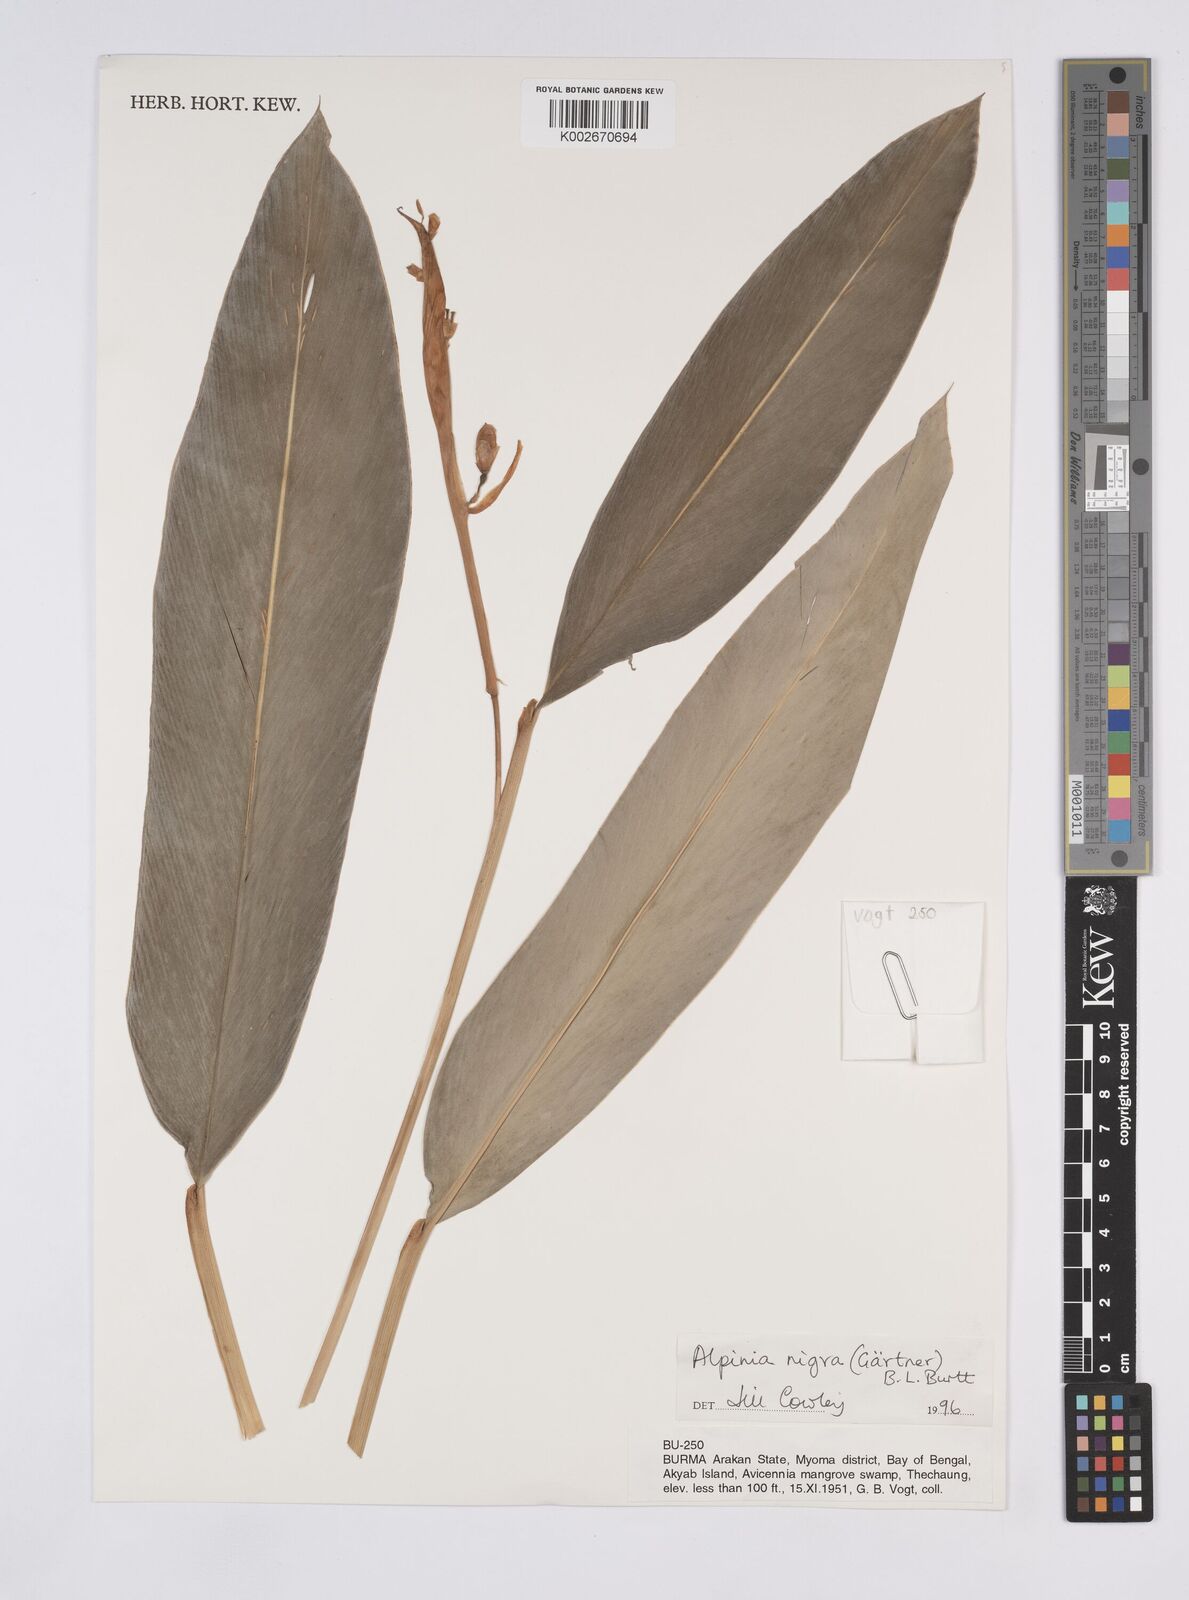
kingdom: Plantae
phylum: Tracheophyta
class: Liliopsida
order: Zingiberales
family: Zingiberaceae
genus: Alpinia
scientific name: Alpinia nigra
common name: Black fruited galanga
